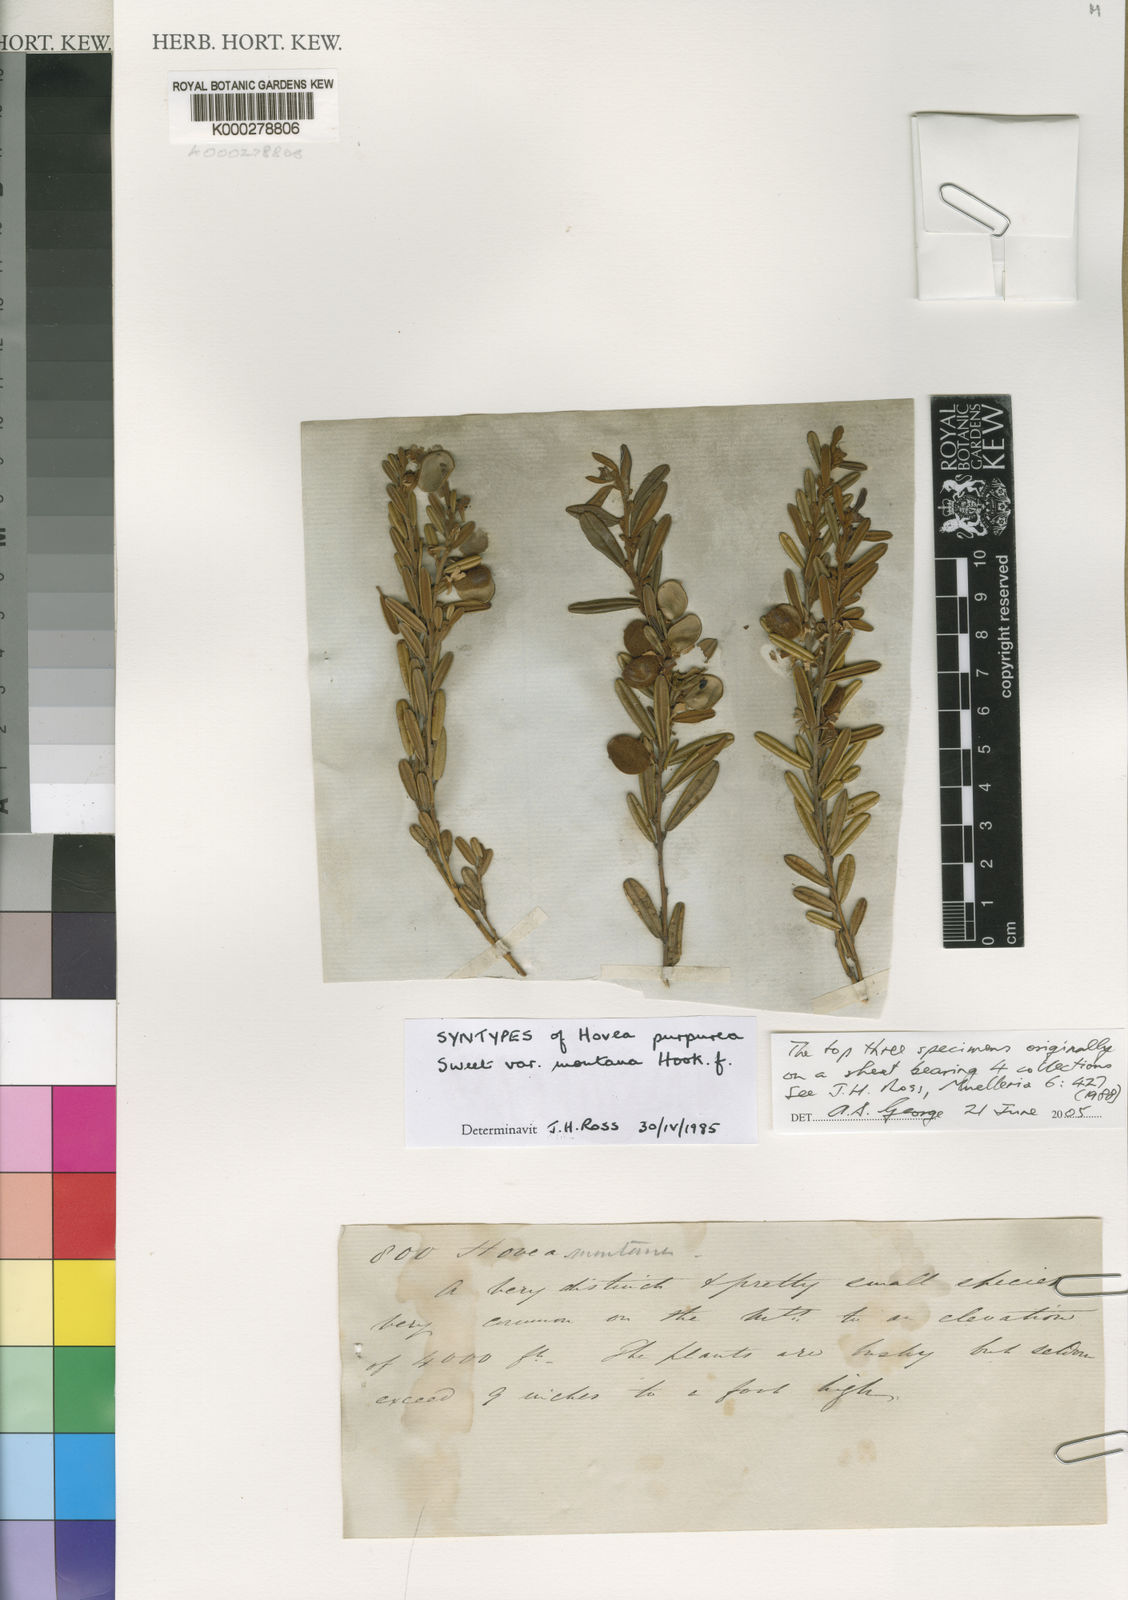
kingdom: Plantae
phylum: Tracheophyta
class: Magnoliopsida
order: Fabales
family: Fabaceae
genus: Hovea
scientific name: Hovea montana
